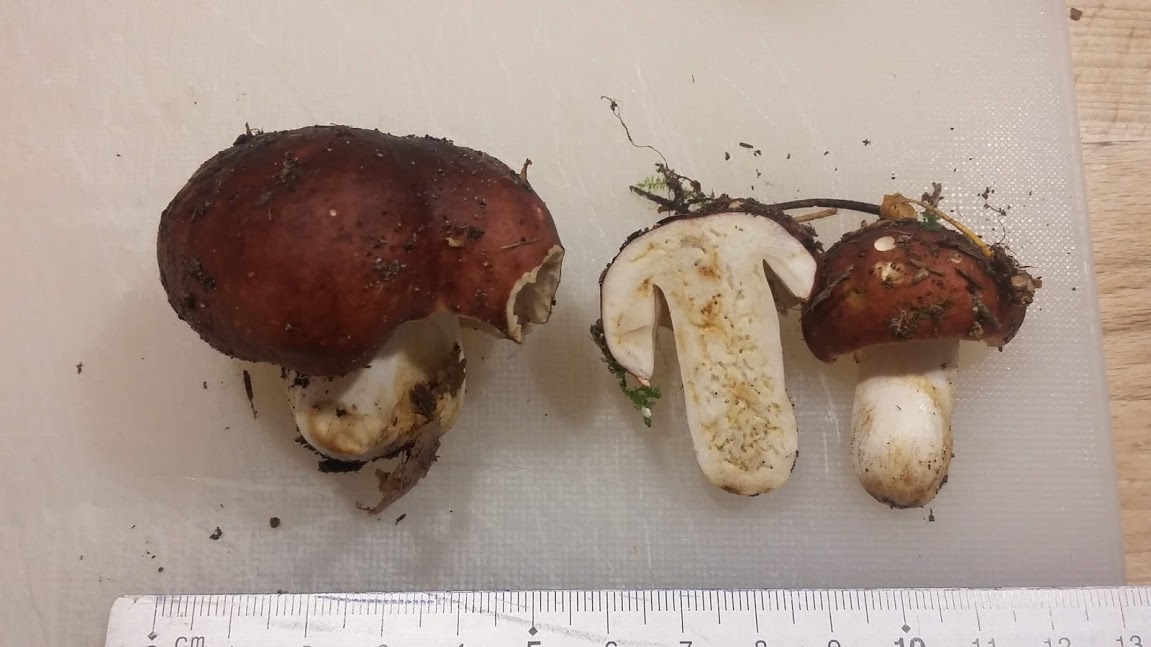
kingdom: Fungi
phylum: Basidiomycota
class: Agaricomycetes
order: Russulales
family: Russulaceae
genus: Russula
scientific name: Russula
